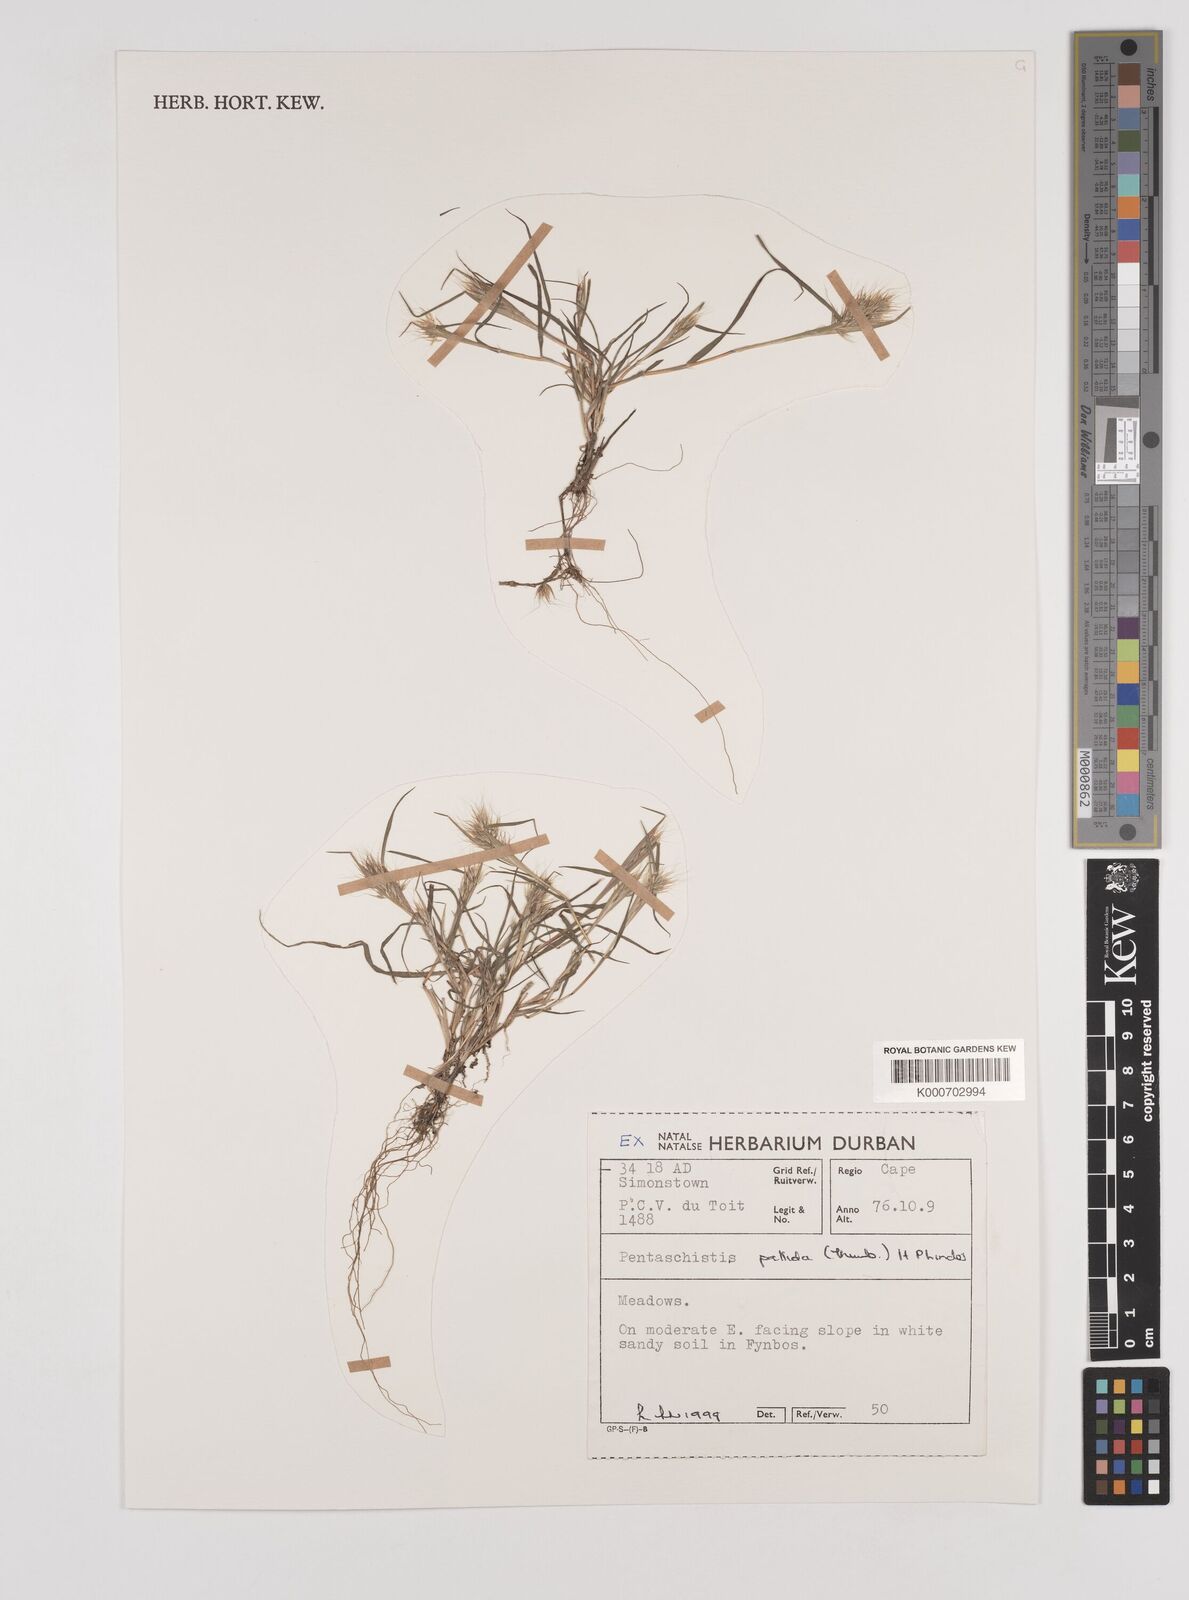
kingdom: Plantae
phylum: Tracheophyta
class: Liliopsida
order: Poales
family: Poaceae
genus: Pentameris
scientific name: Pentameris pallida
